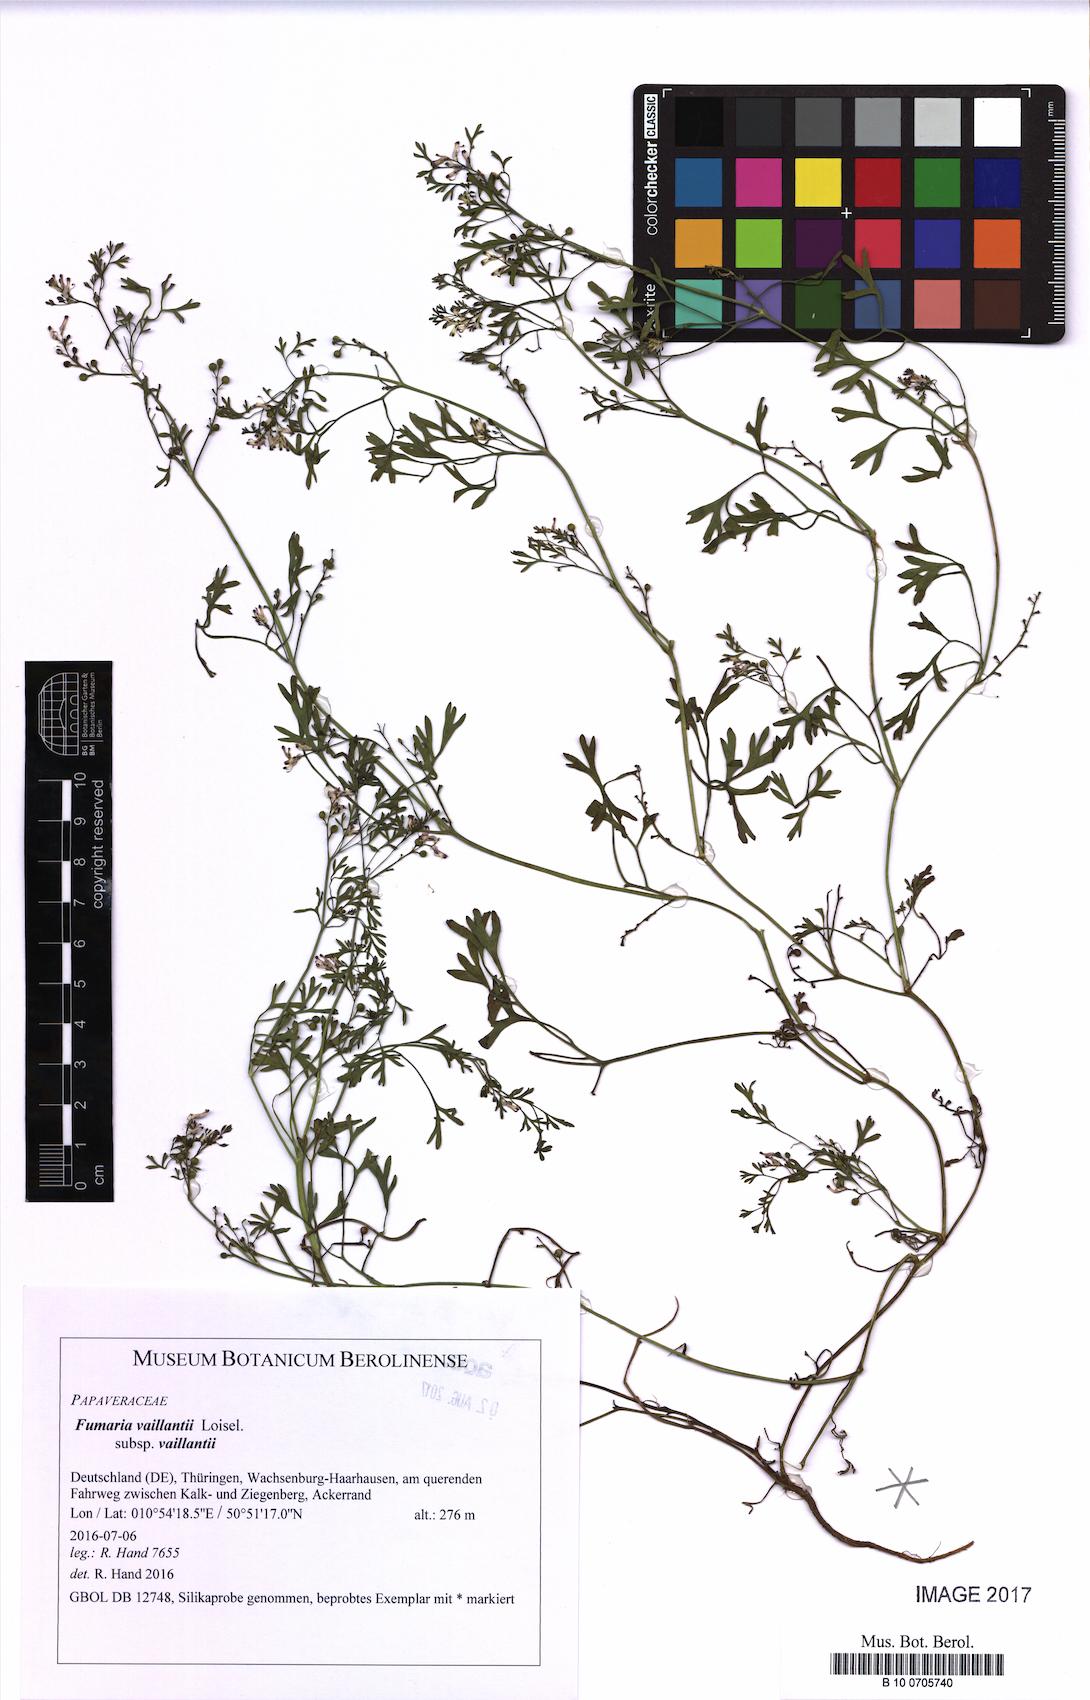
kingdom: Plantae
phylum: Tracheophyta
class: Magnoliopsida
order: Ranunculales
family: Papaveraceae
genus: Fumaria
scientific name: Fumaria vaillantii
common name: Few-flowered fumitory
